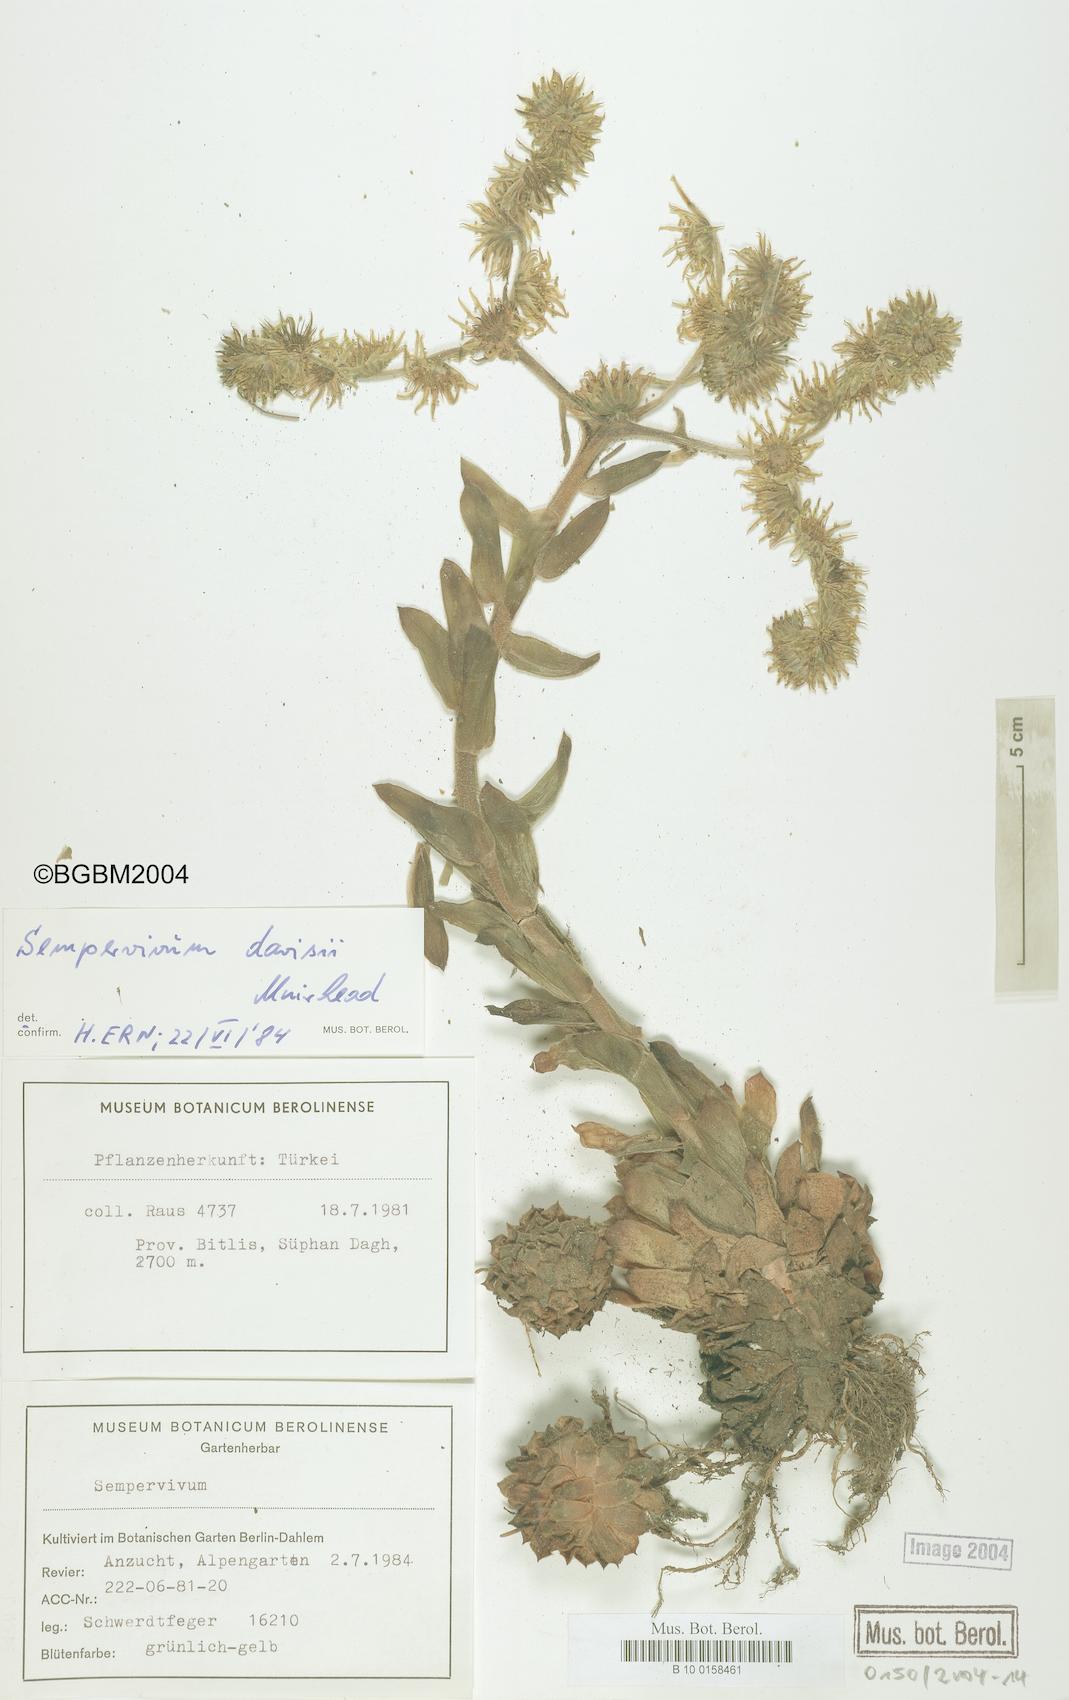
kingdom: Plantae
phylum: Tracheophyta
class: Magnoliopsida
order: Saxifragales
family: Crassulaceae
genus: Sempervivum
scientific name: Sempervivum davisii
